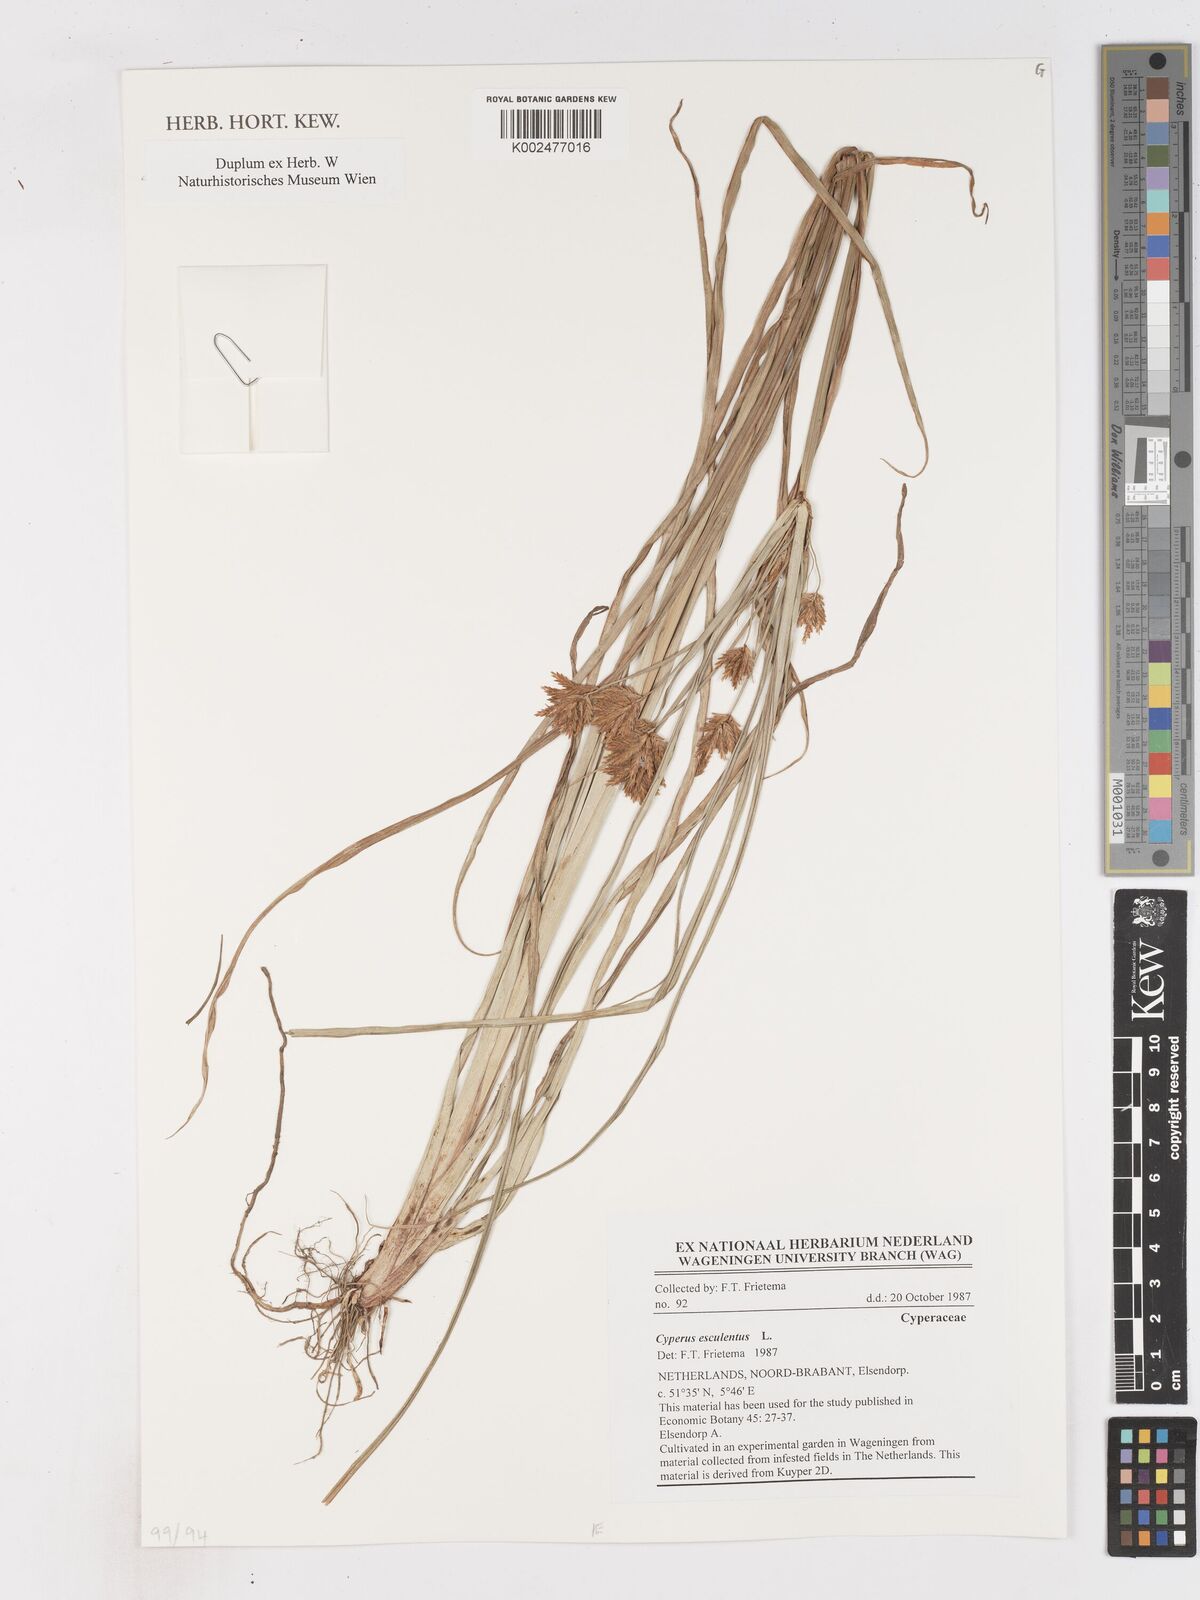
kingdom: Plantae
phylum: Tracheophyta
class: Liliopsida
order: Poales
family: Cyperaceae
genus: Cyperus
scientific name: Cyperus esculentus
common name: Yellow nutsedge
